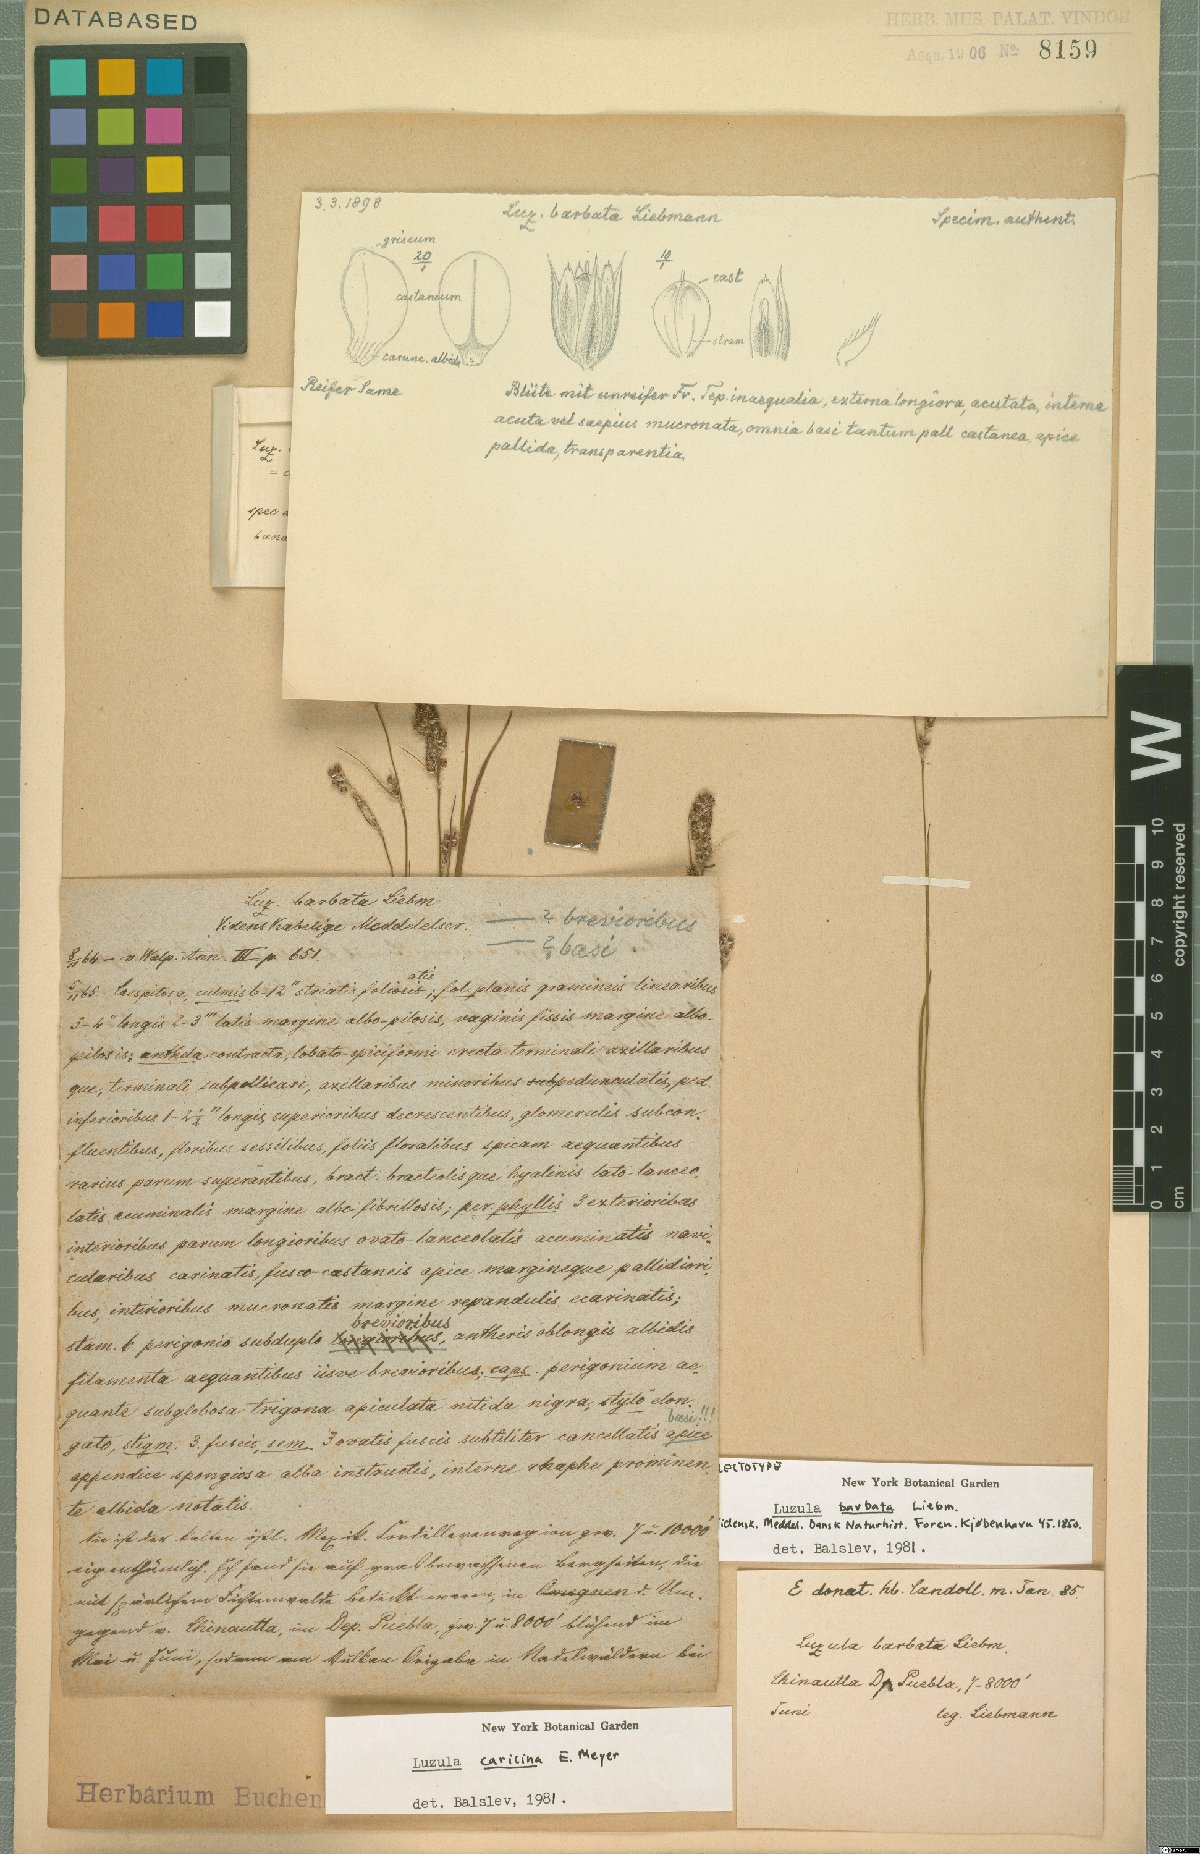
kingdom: Plantae
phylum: Tracheophyta
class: Liliopsida
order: Poales
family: Juncaceae
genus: Luzula
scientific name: Luzula caricina
